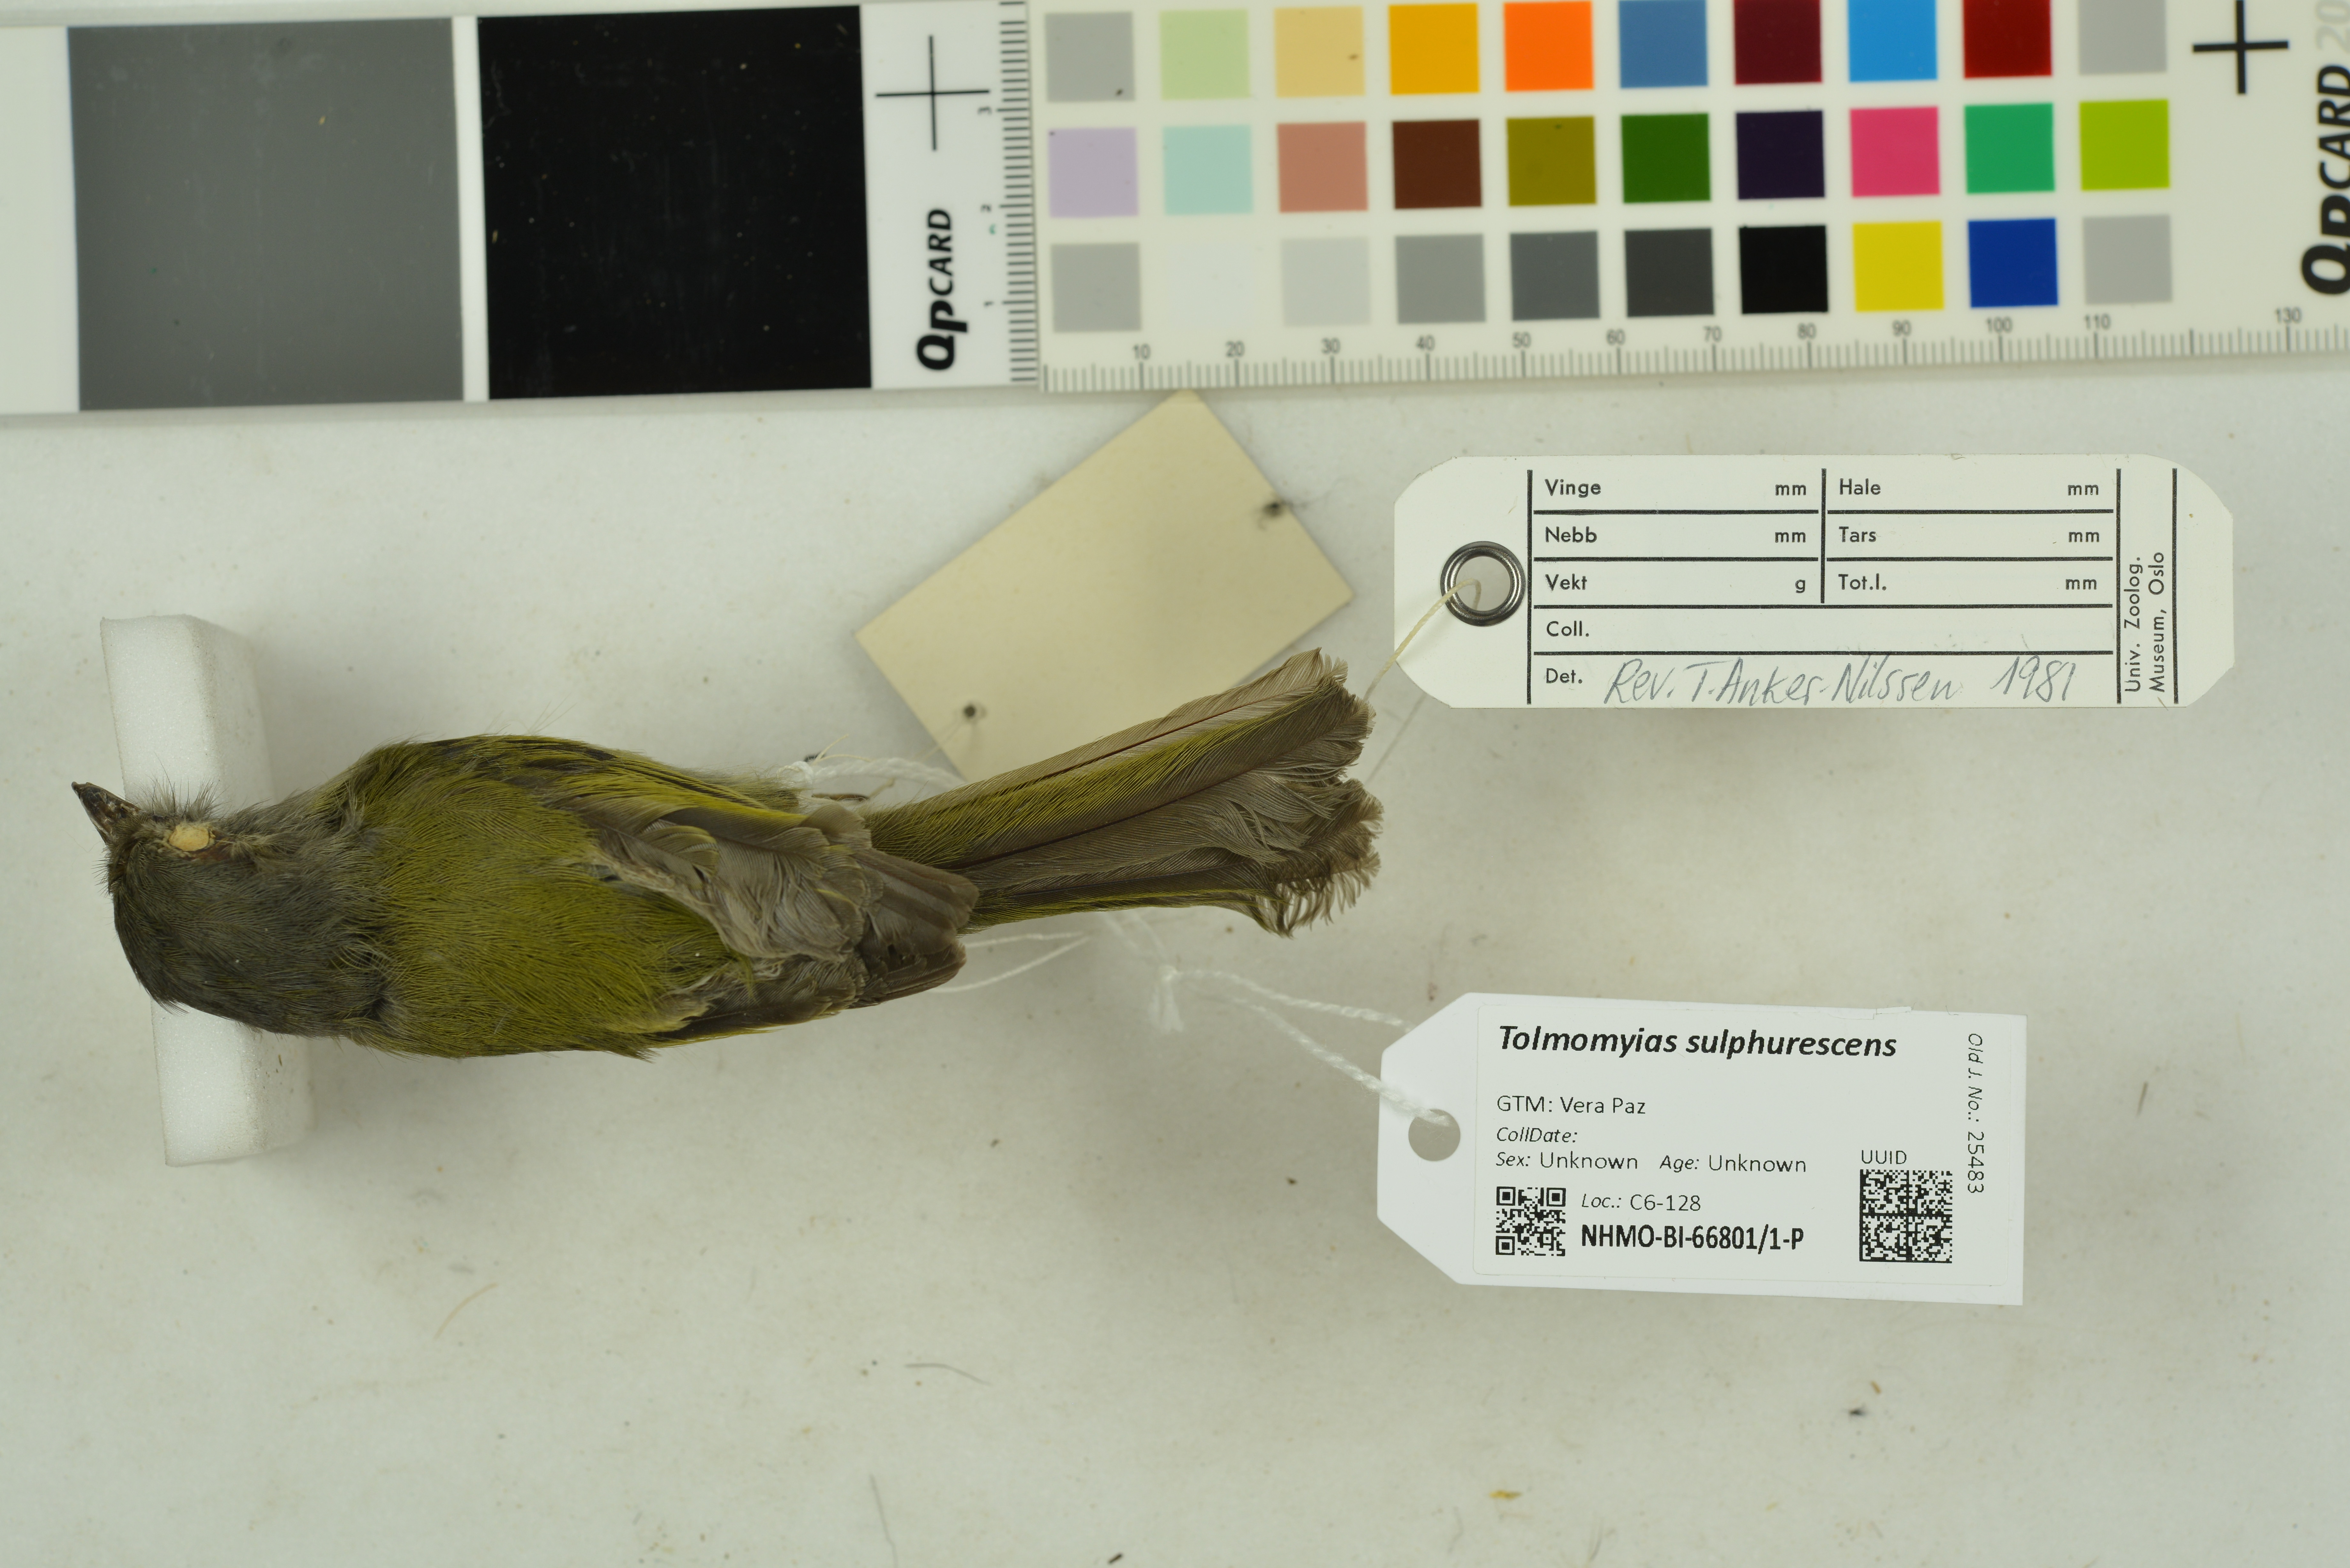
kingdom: Animalia
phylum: Chordata
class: Aves
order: Passeriformes
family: Tyrannidae
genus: Tolmomyias
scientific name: Tolmomyias sulphurescens
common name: Yellow-olive flycatcher
